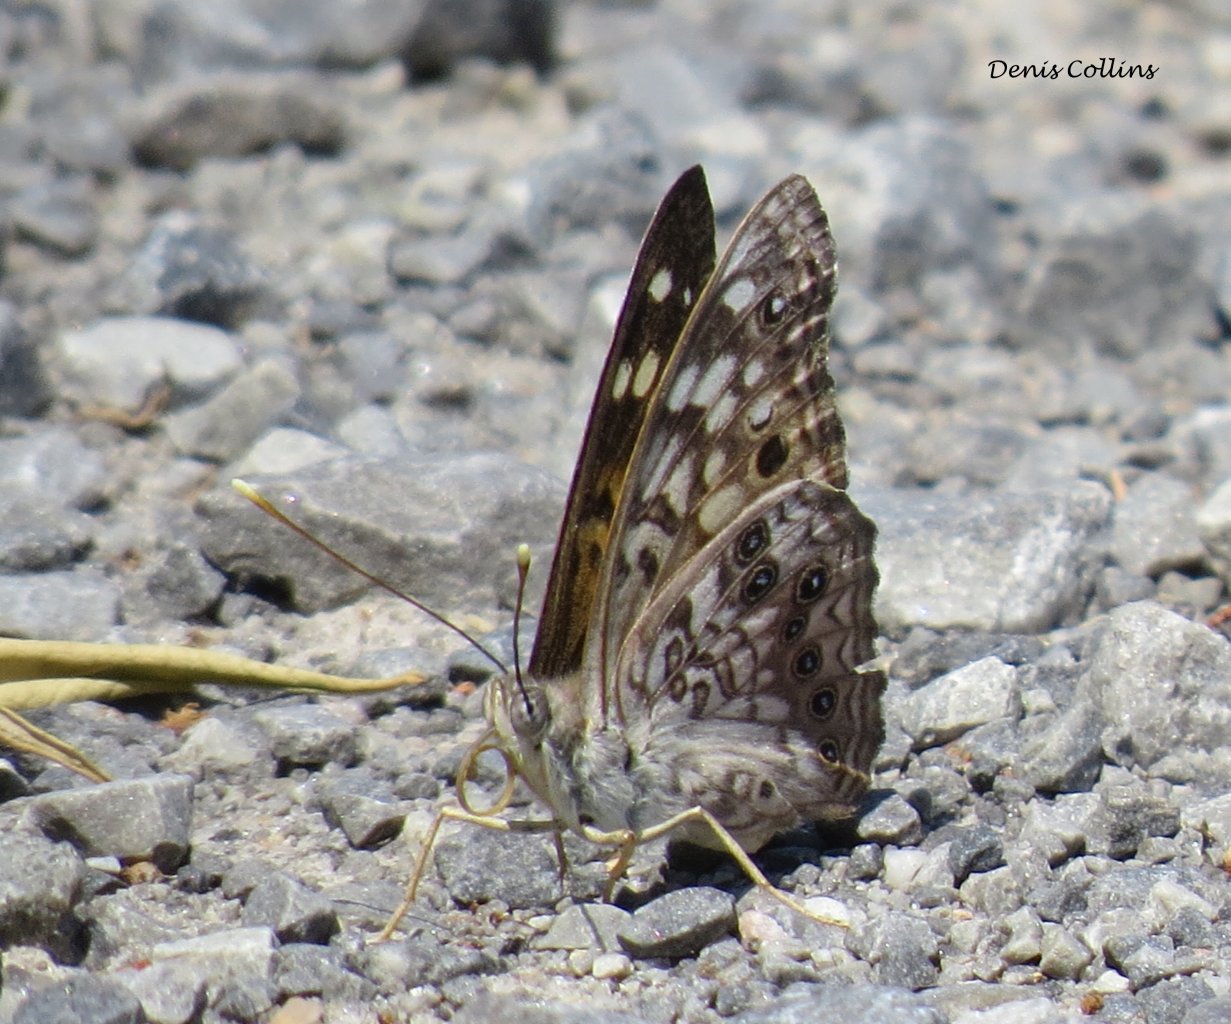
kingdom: Animalia
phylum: Arthropoda
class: Insecta
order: Lepidoptera
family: Nymphalidae
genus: Asterocampa
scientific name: Asterocampa celtis
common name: Hackberry Emperor
